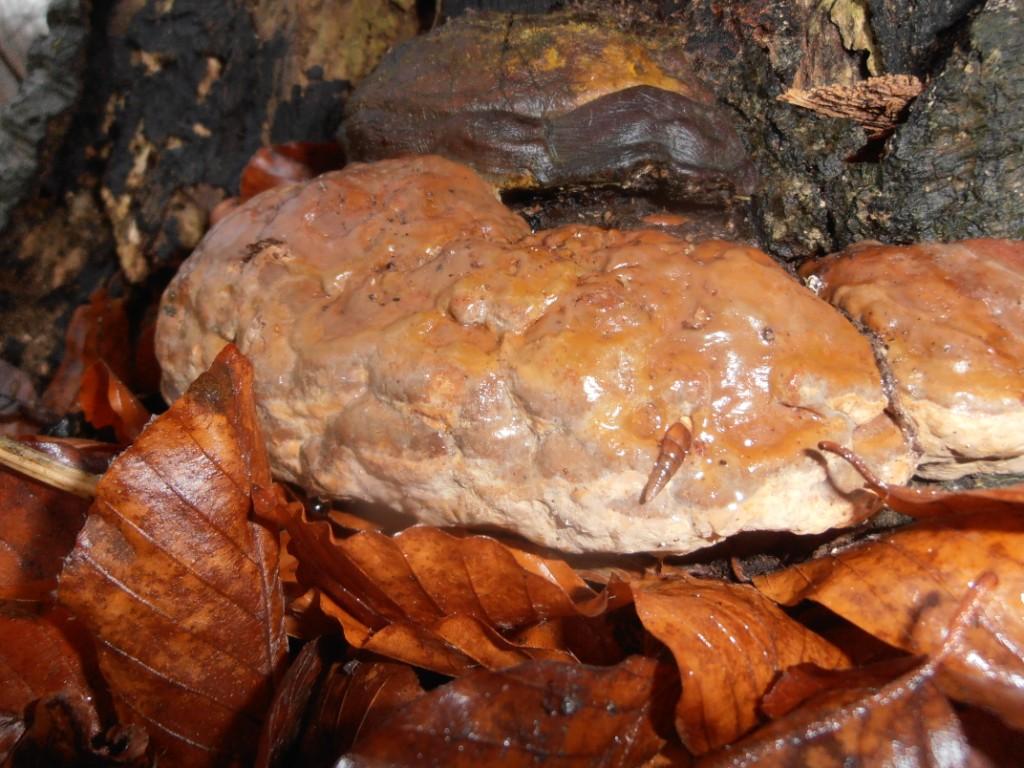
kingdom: Fungi
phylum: Basidiomycota
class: Agaricomycetes
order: Polyporales
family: Polyporaceae
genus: Ganoderma
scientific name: Ganoderma pfeifferi
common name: kobberrød lakporesvamp
